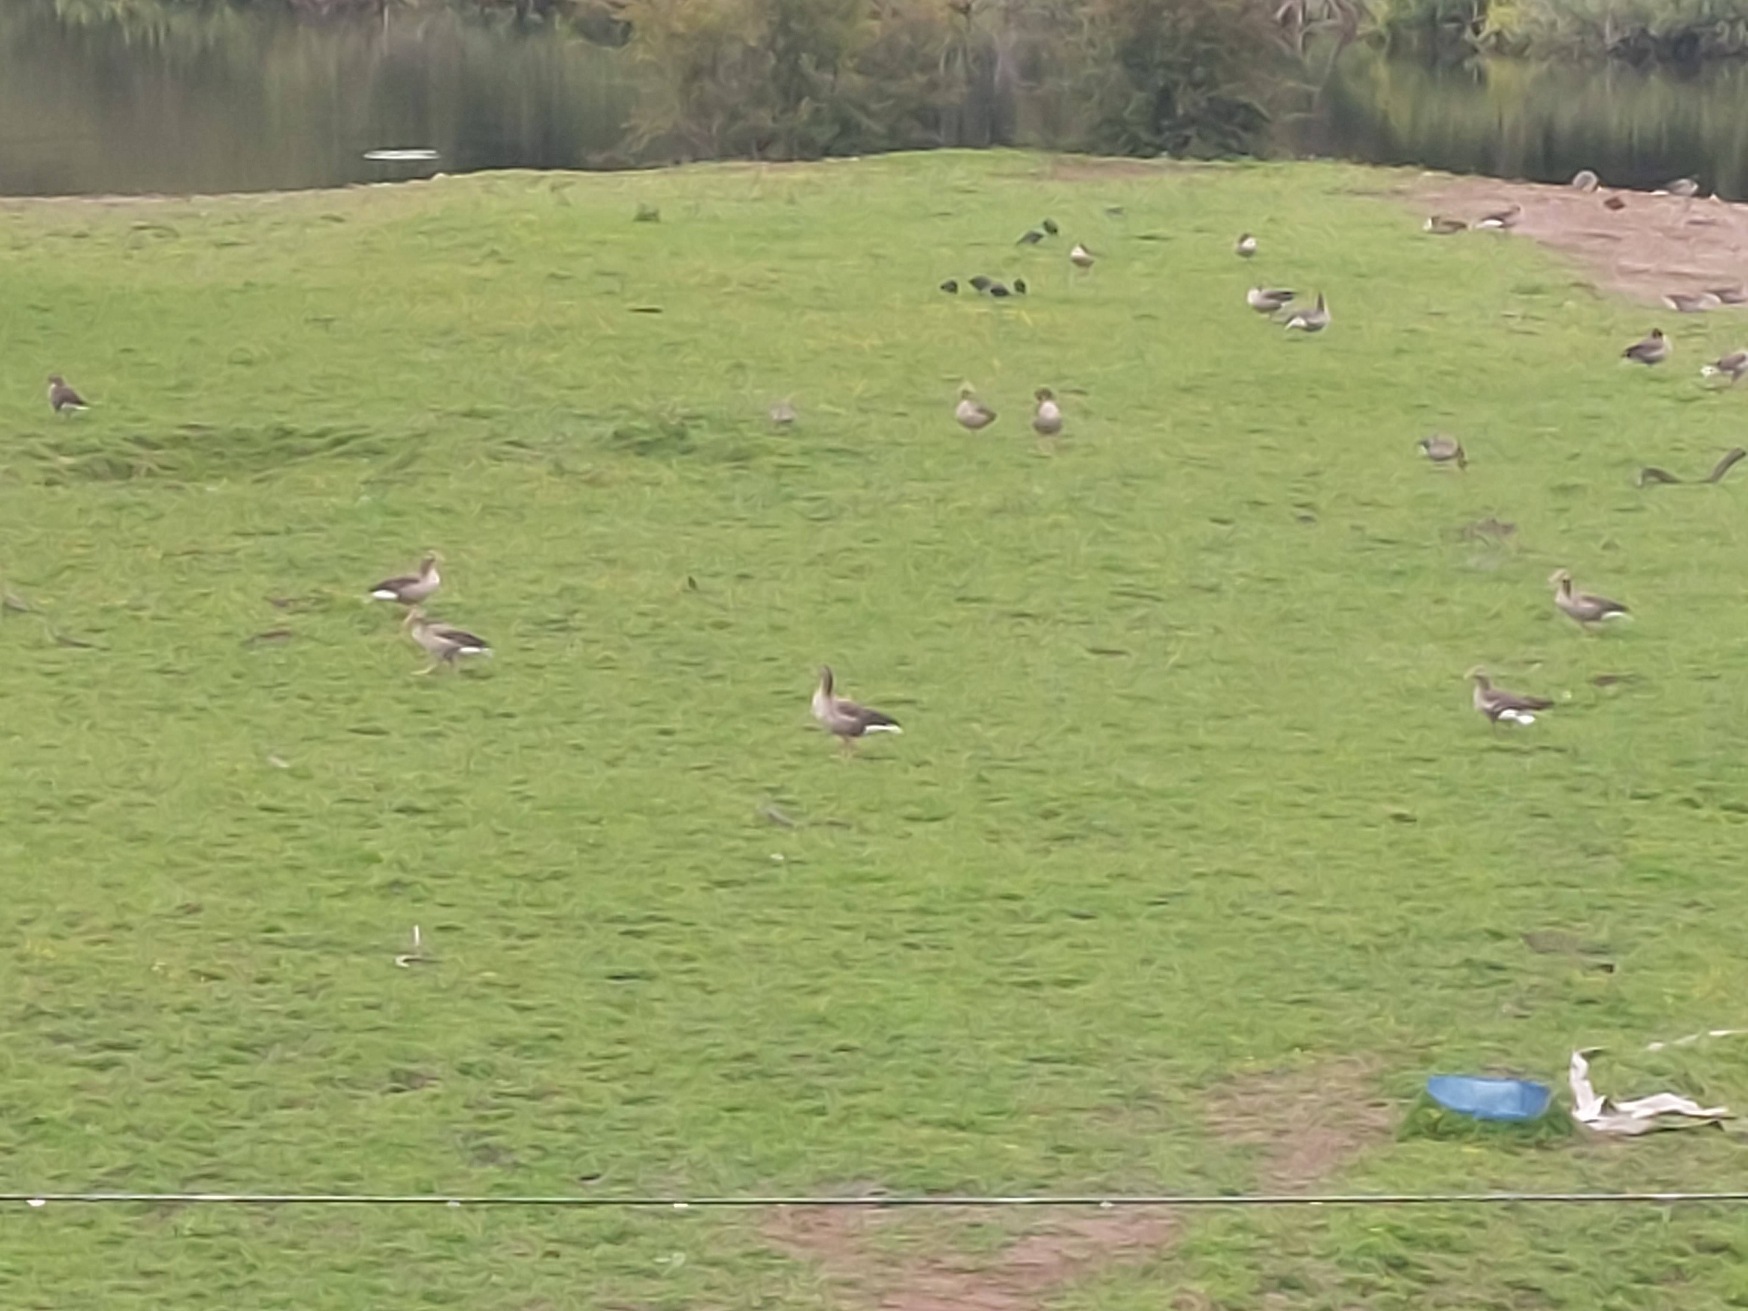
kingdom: Animalia
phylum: Chordata
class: Aves
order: Anseriformes
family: Anatidae
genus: Anser
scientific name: Anser anser
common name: Grågås
